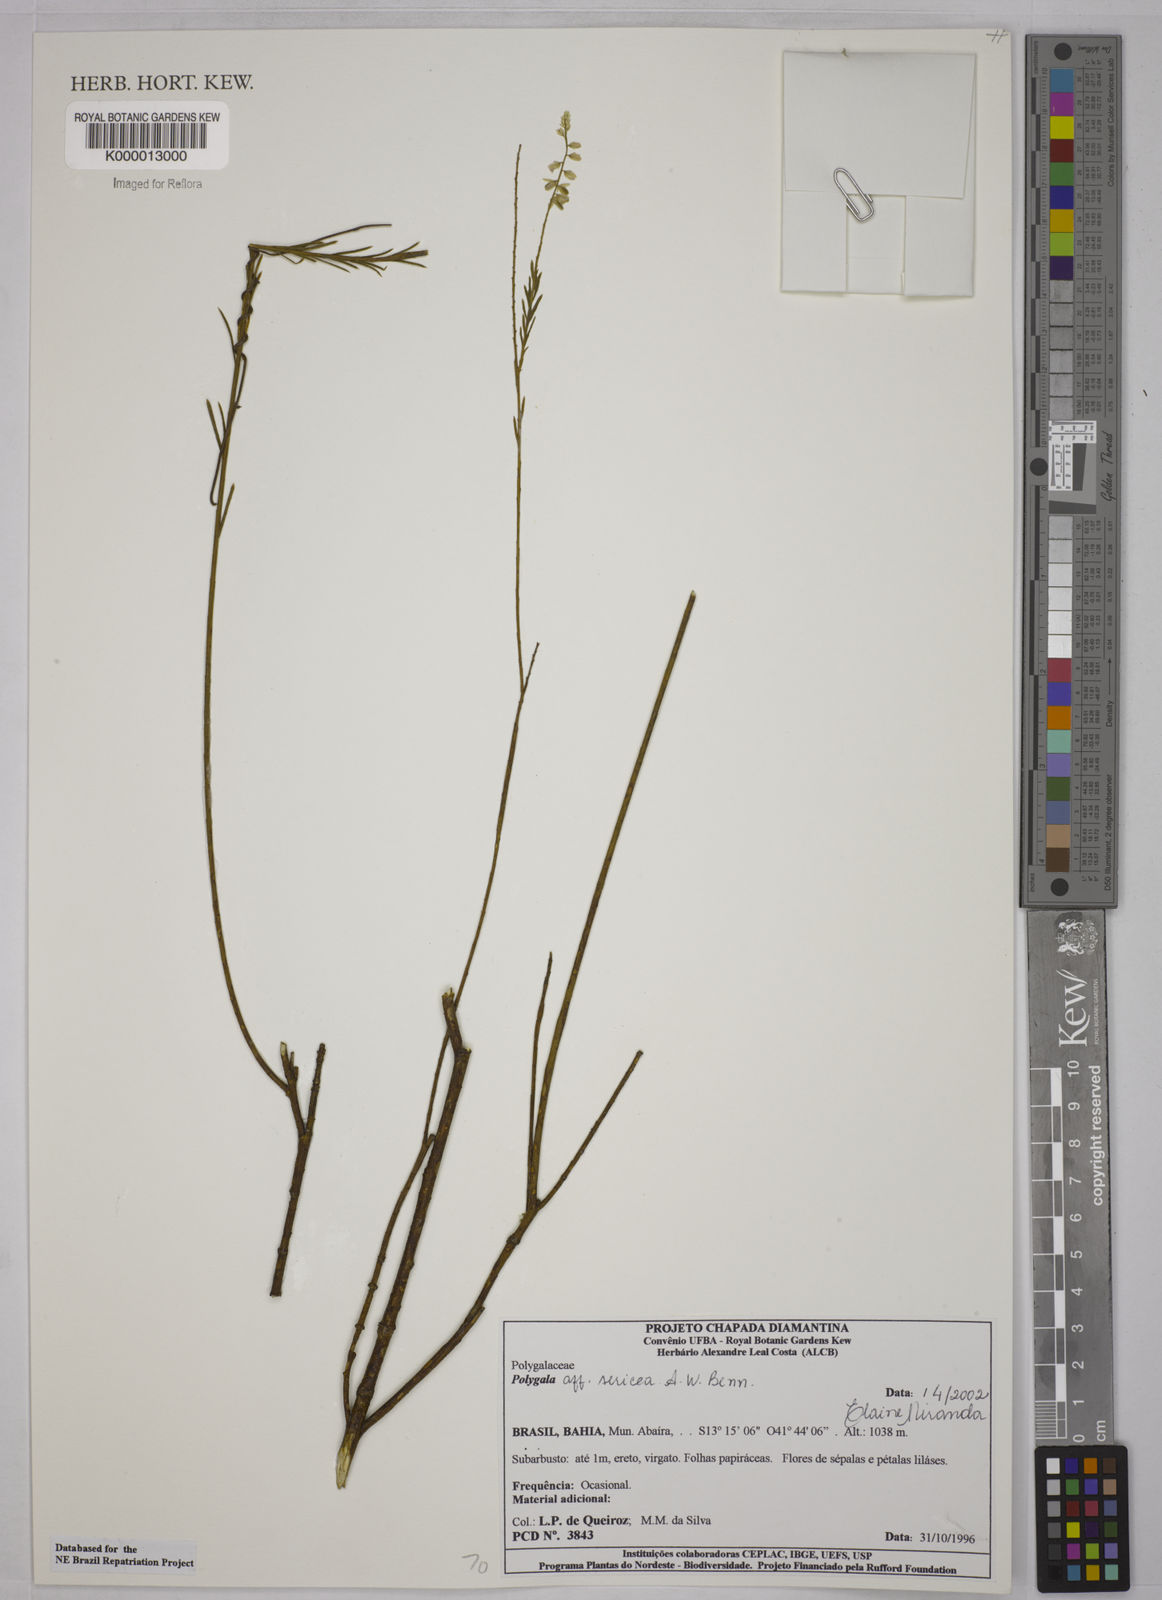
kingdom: Plantae
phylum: Tracheophyta
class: Magnoliopsida
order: Fabales
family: Polygalaceae
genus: Polygala
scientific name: Polygala sericea
